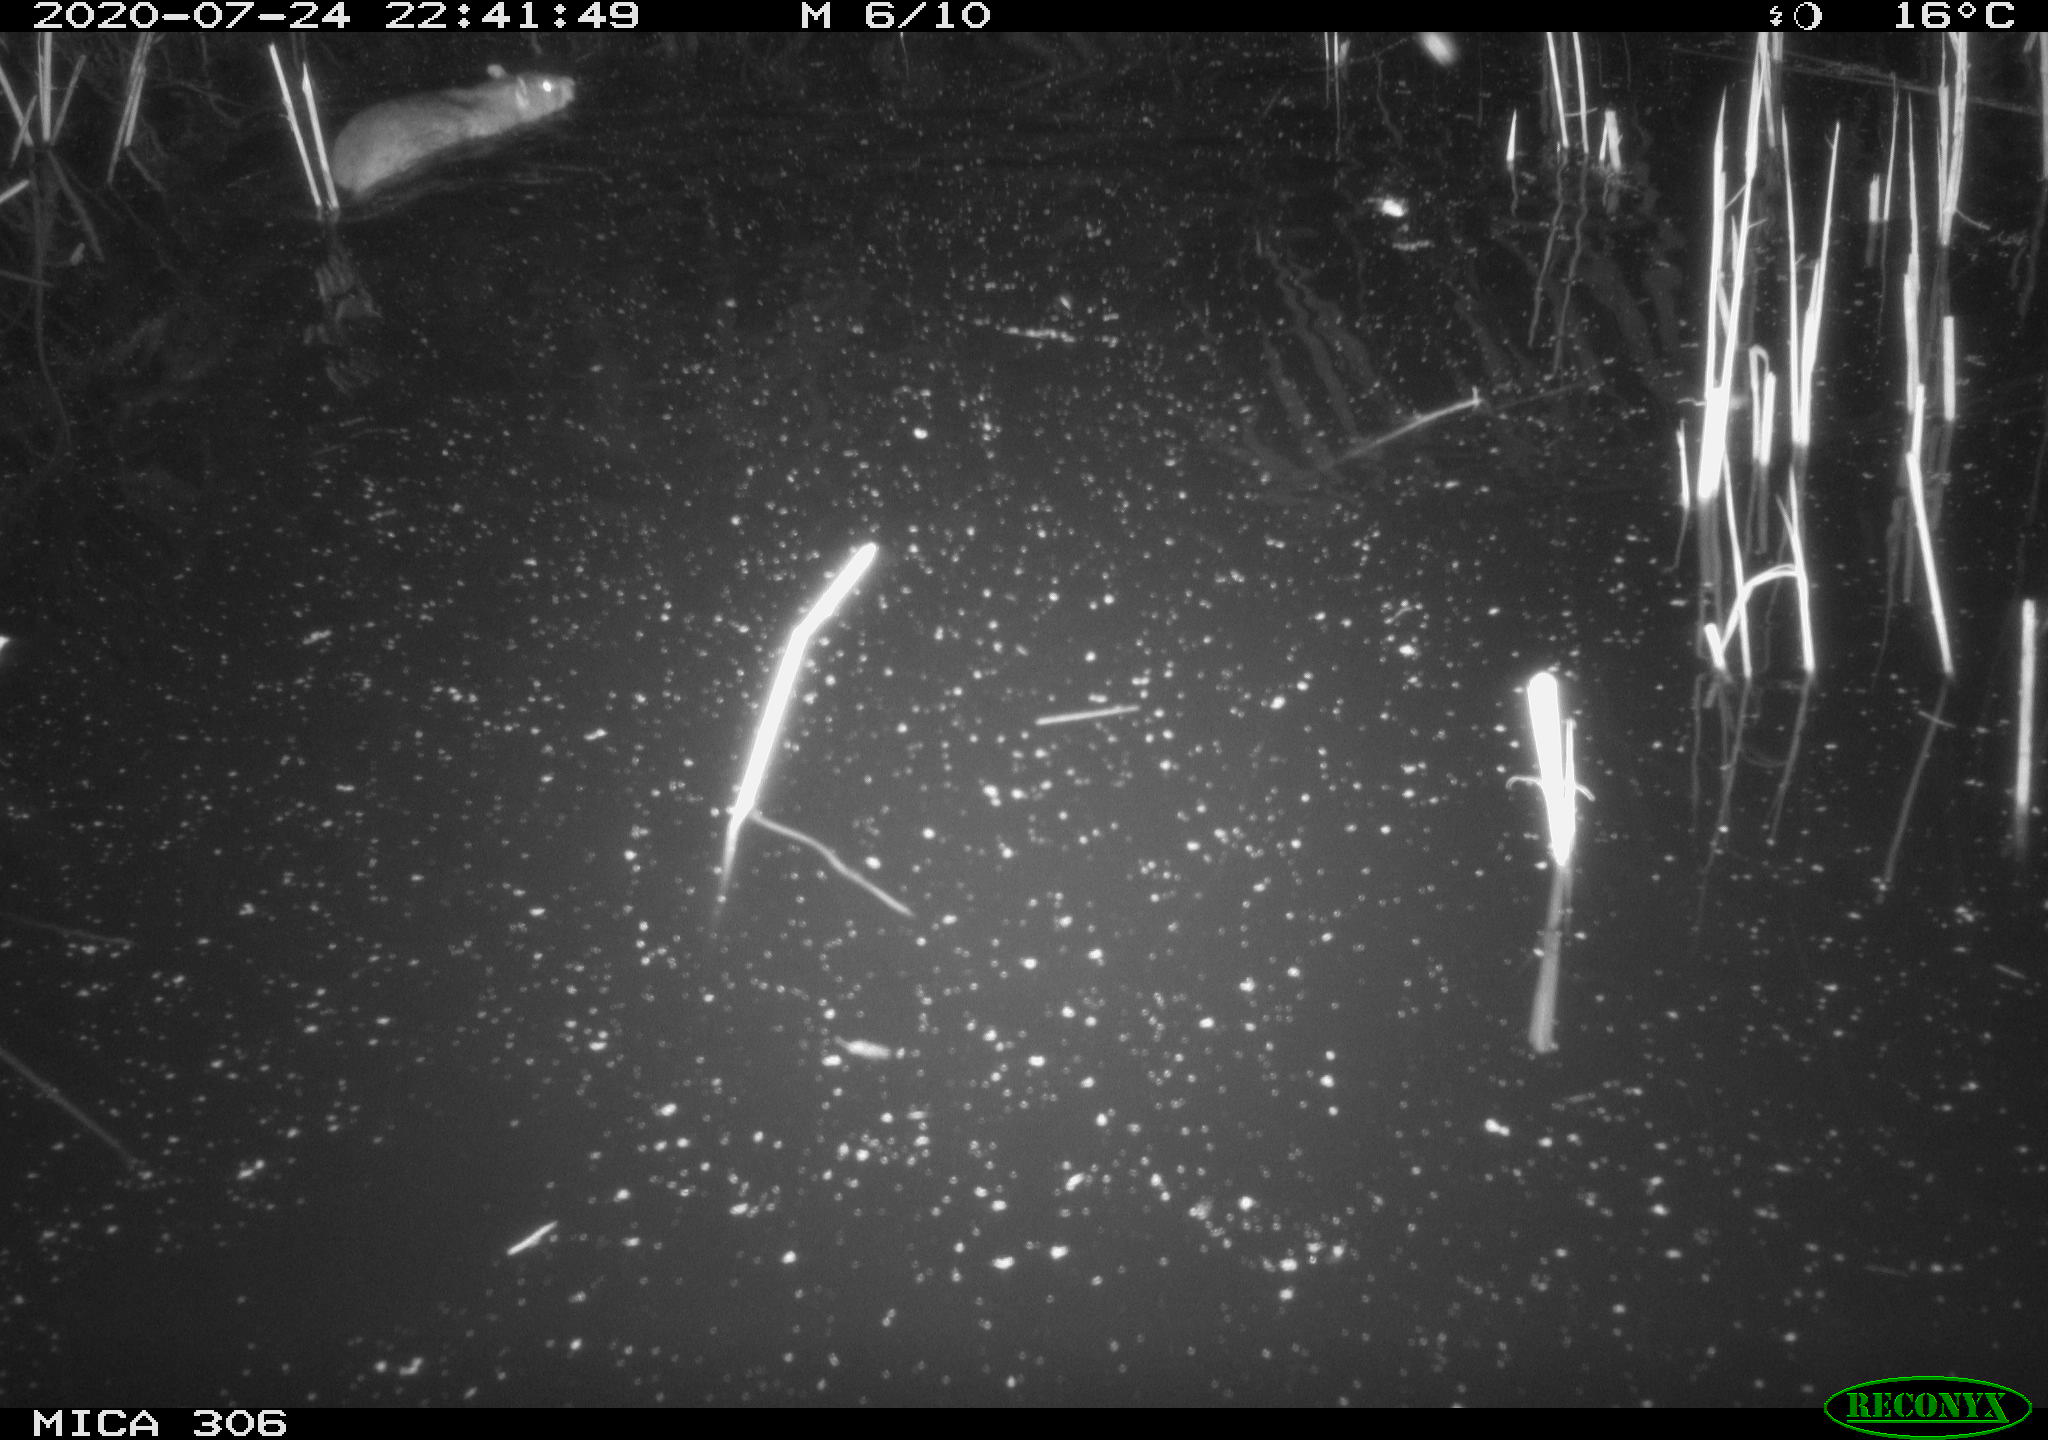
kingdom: Animalia
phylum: Chordata
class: Mammalia
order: Rodentia
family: Muridae
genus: Rattus
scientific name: Rattus norvegicus
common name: Brown rat
